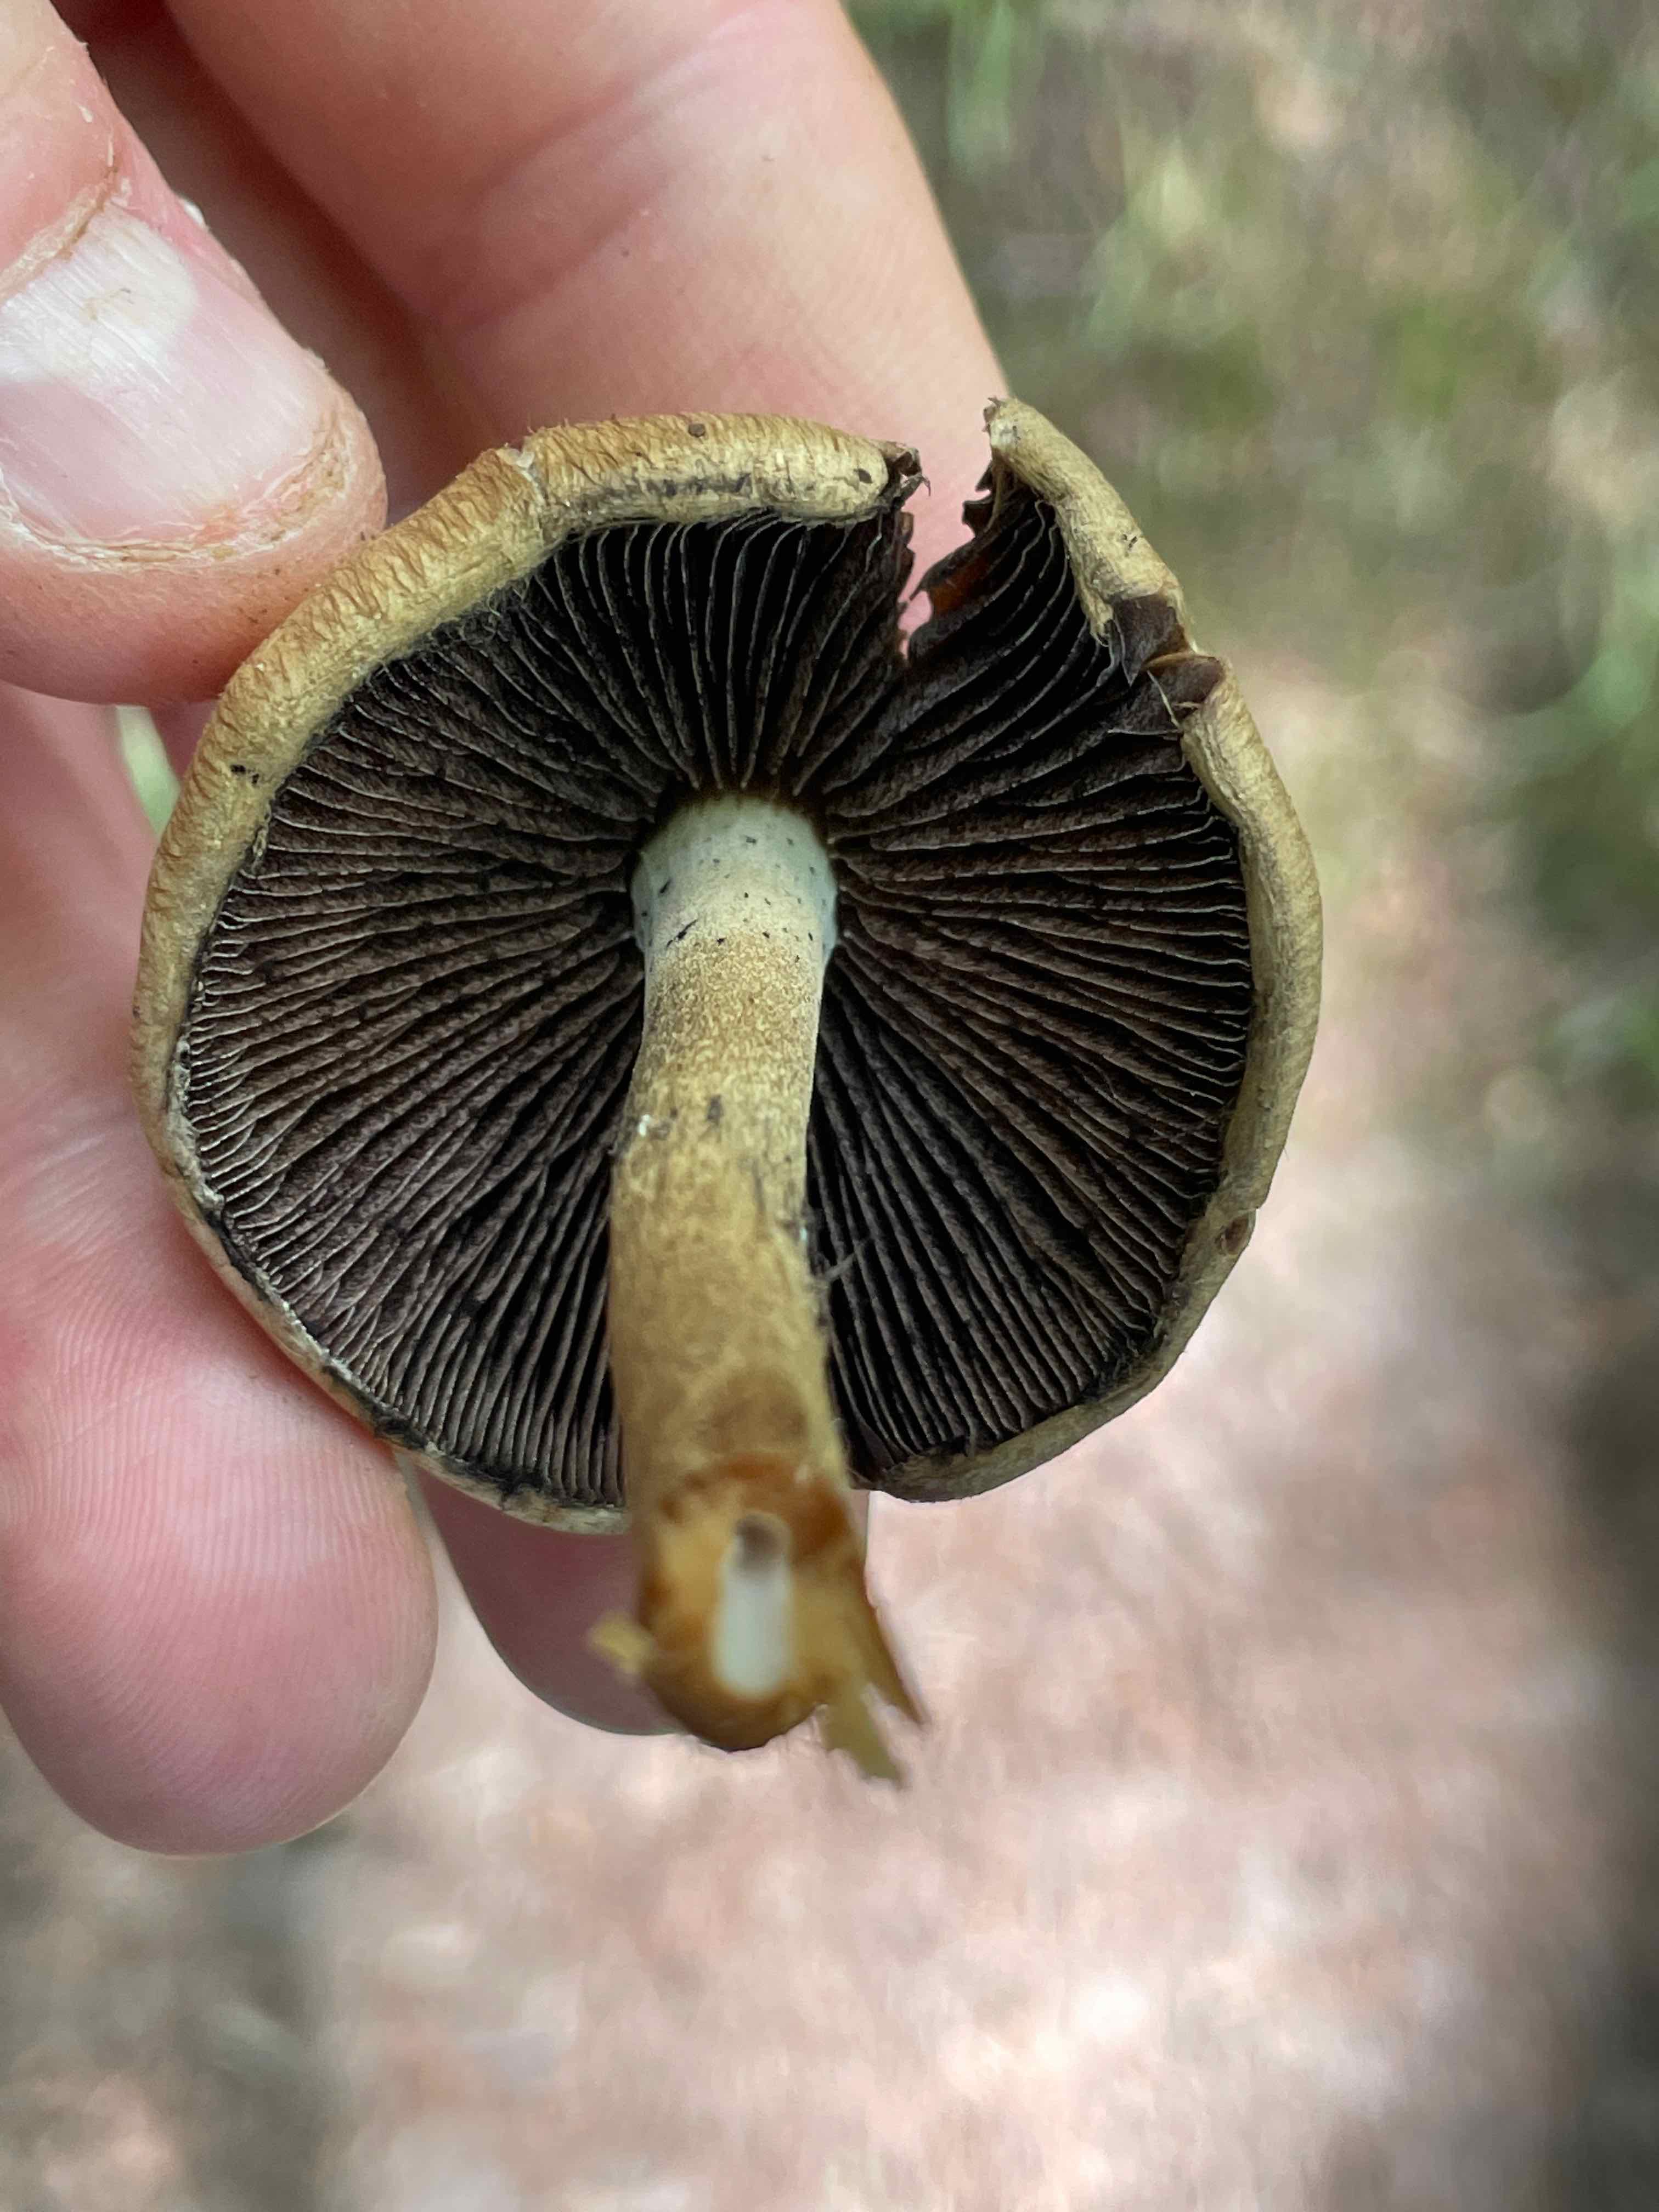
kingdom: Fungi
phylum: Basidiomycota
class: Agaricomycetes
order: Agaricales
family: Psathyrellaceae
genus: Lacrymaria
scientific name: Lacrymaria lacrymabunda
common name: grædende mørkhat
